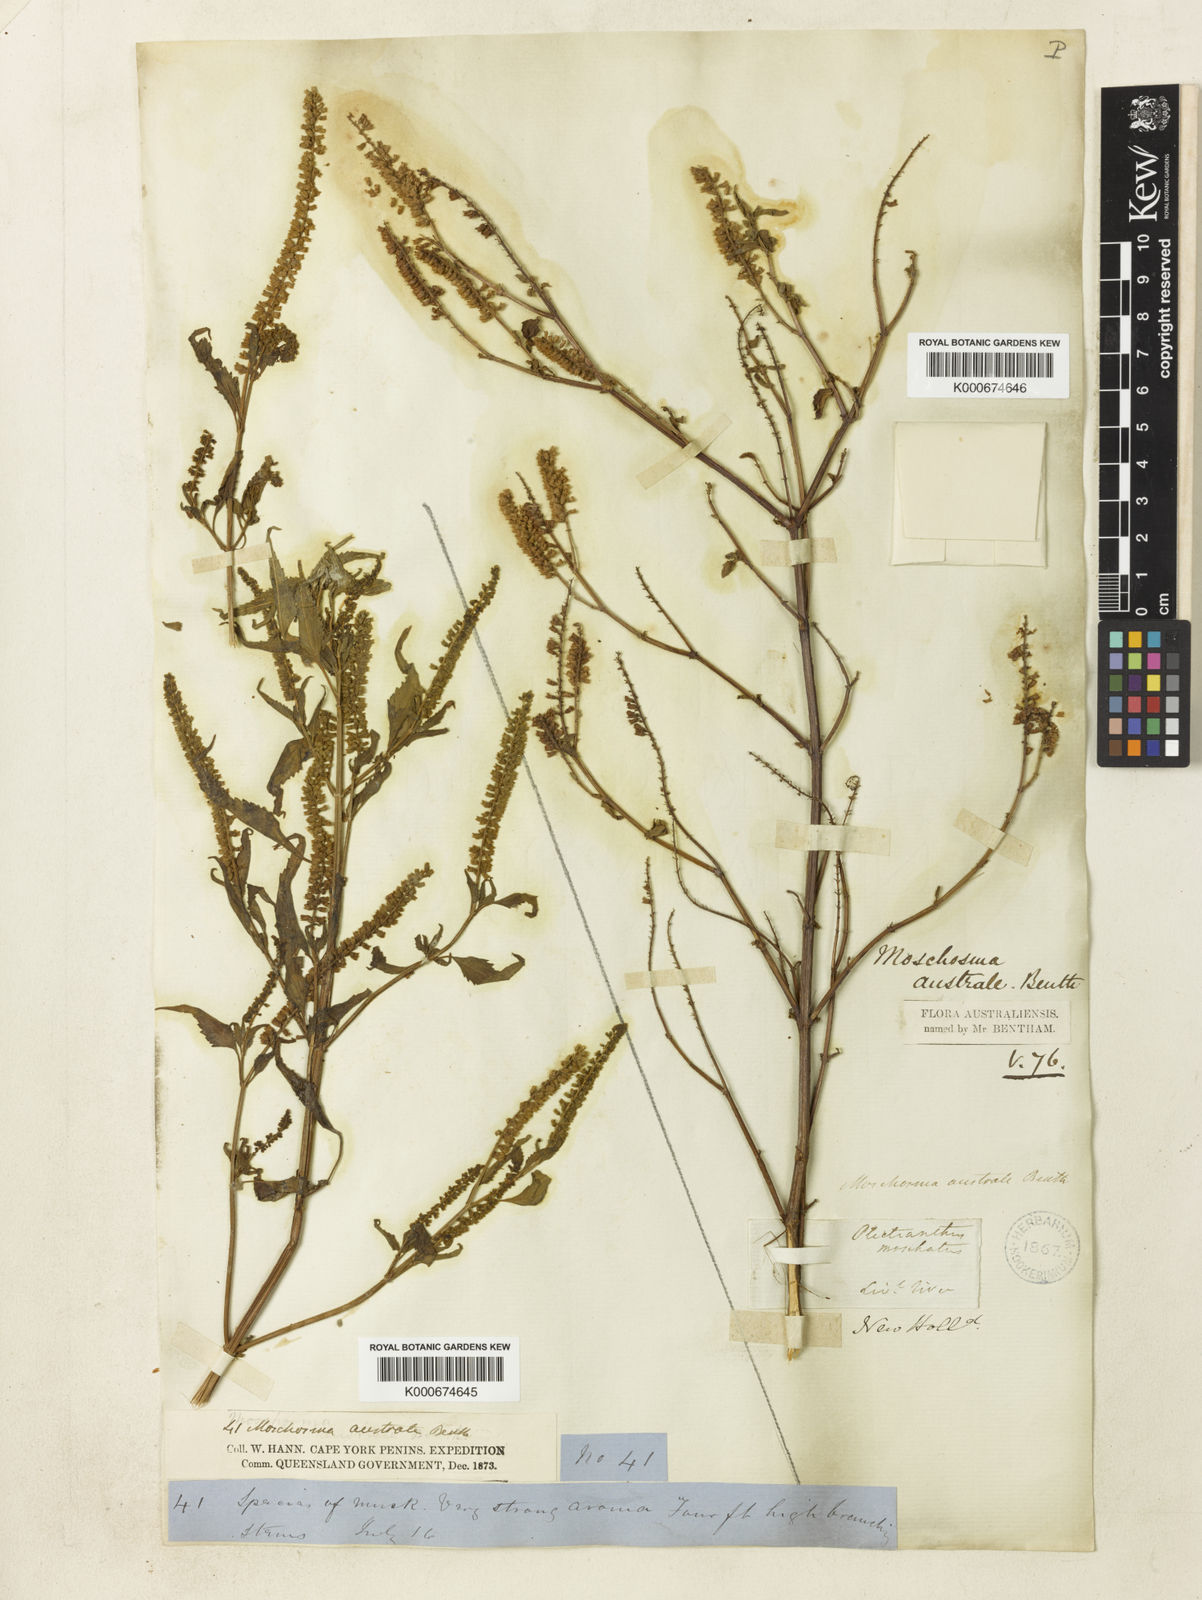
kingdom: Plantae
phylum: Tracheophyta
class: Magnoliopsida
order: Lamiales
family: Lamiaceae
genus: Basilicum
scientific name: Basilicum
